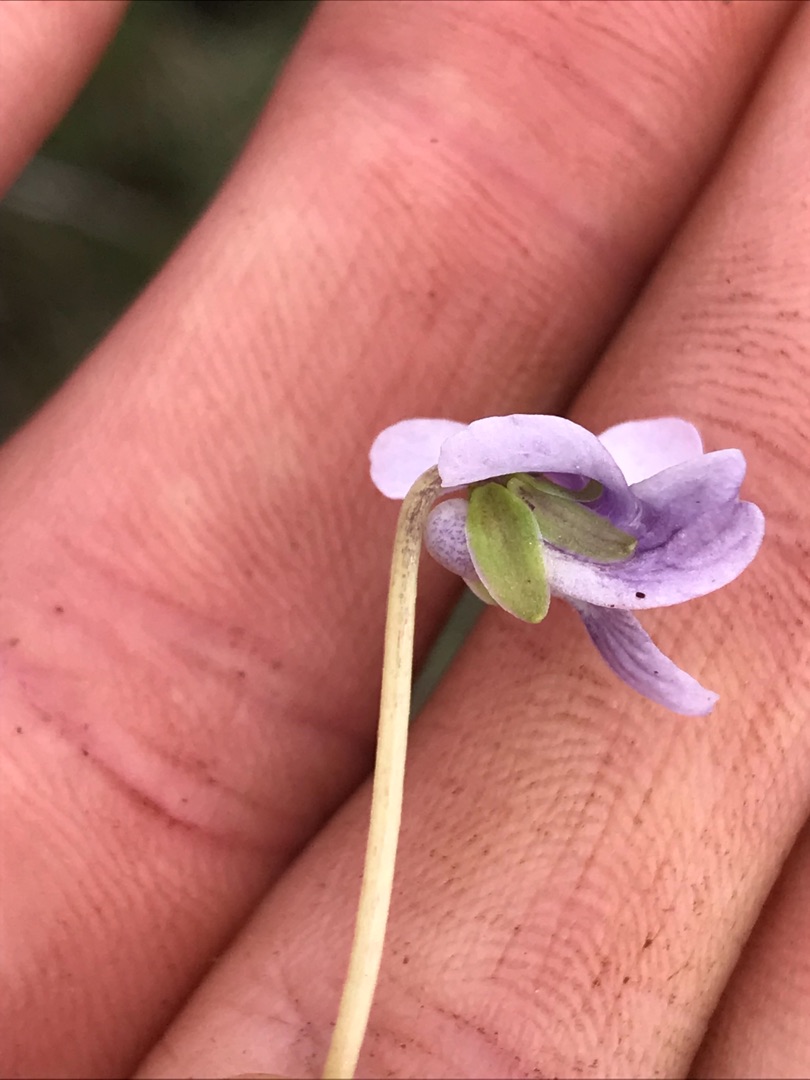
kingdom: Plantae
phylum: Tracheophyta
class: Magnoliopsida
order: Malpighiales
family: Violaceae
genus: Viola
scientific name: Viola palustris
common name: Eng-viol
